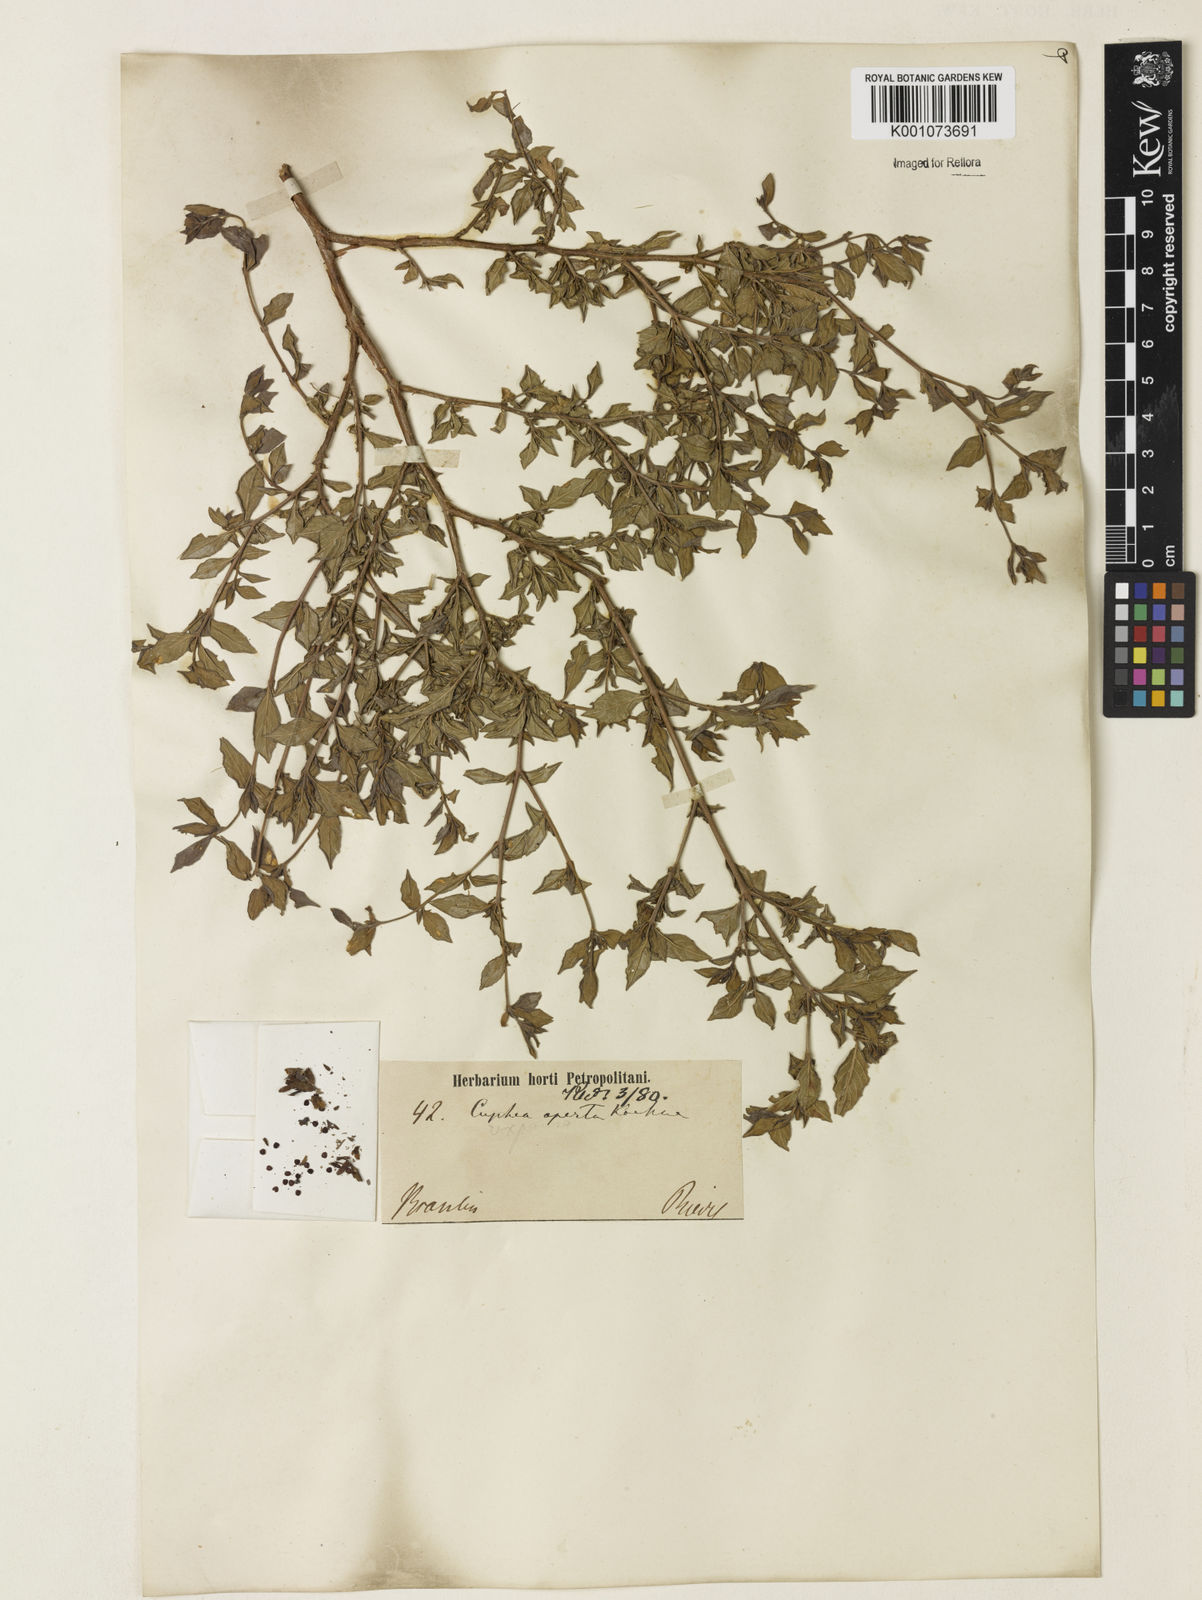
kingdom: Plantae
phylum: Tracheophyta
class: Magnoliopsida
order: Myrtales
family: Lythraceae
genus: Cuphea
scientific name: Cuphea aperta
